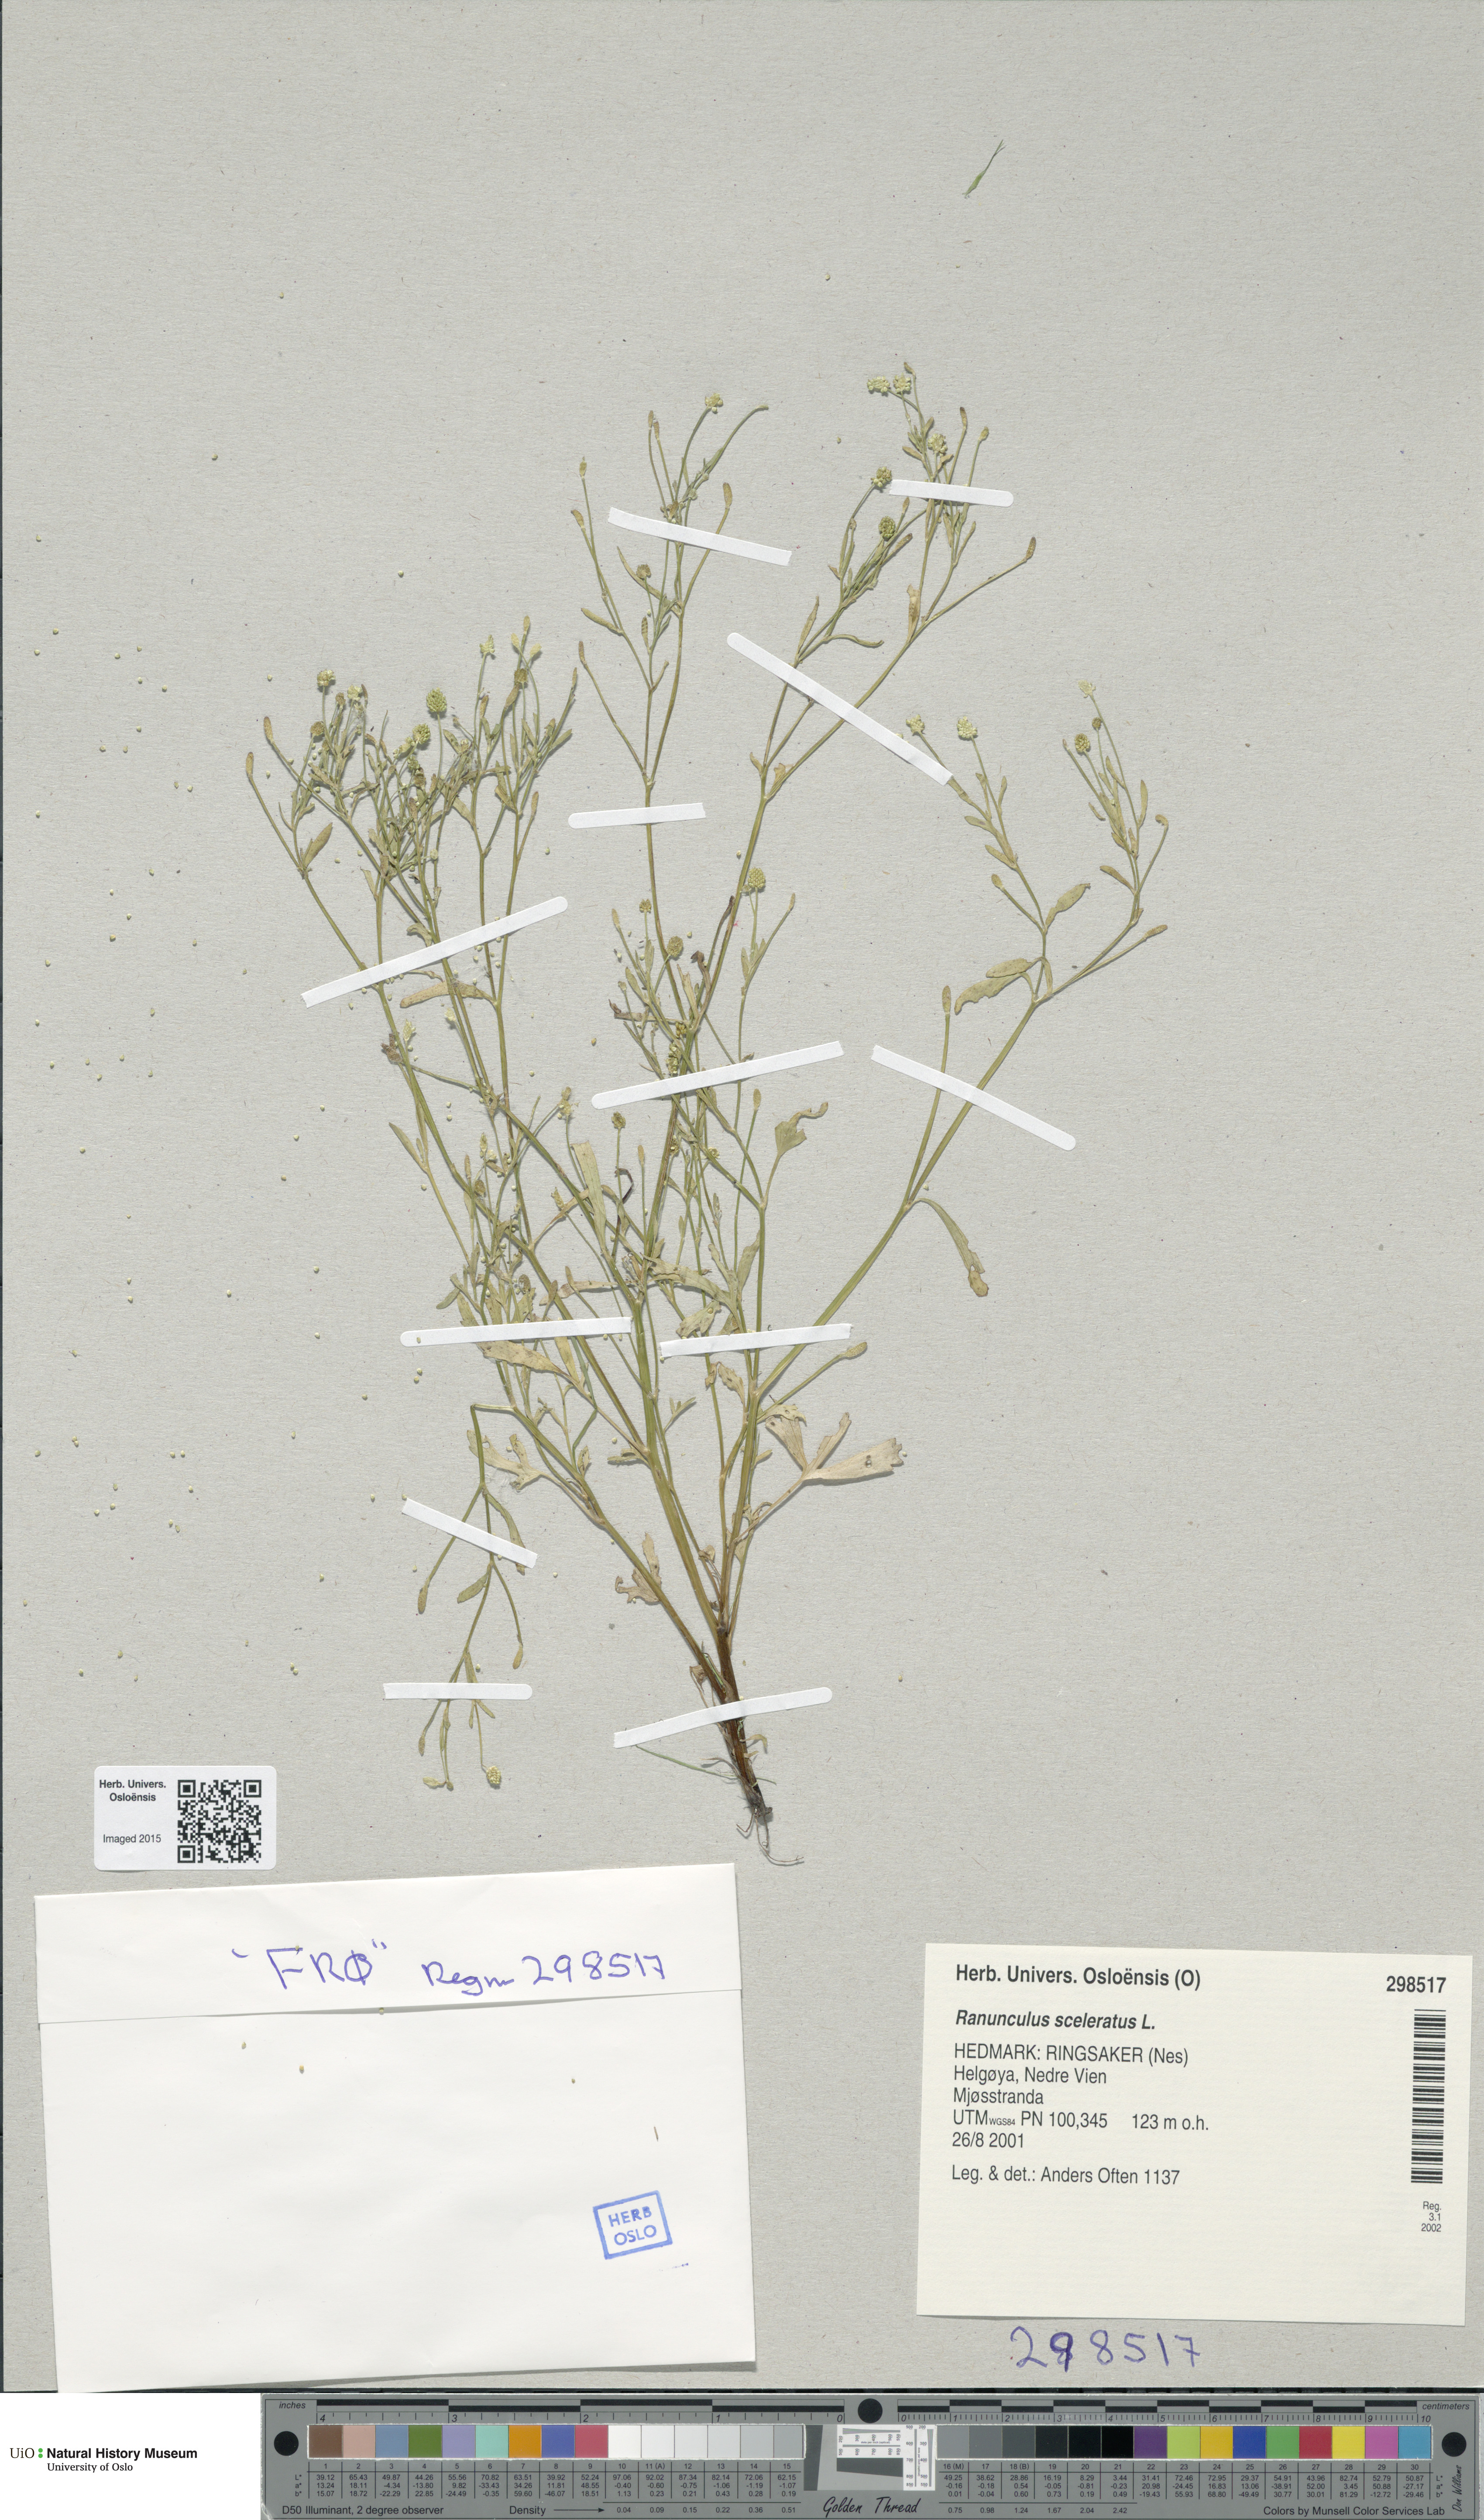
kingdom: Plantae
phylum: Tracheophyta
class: Magnoliopsida
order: Ranunculales
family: Ranunculaceae
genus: Ranunculus
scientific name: Ranunculus sceleratus
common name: Celery-leaved buttercup
